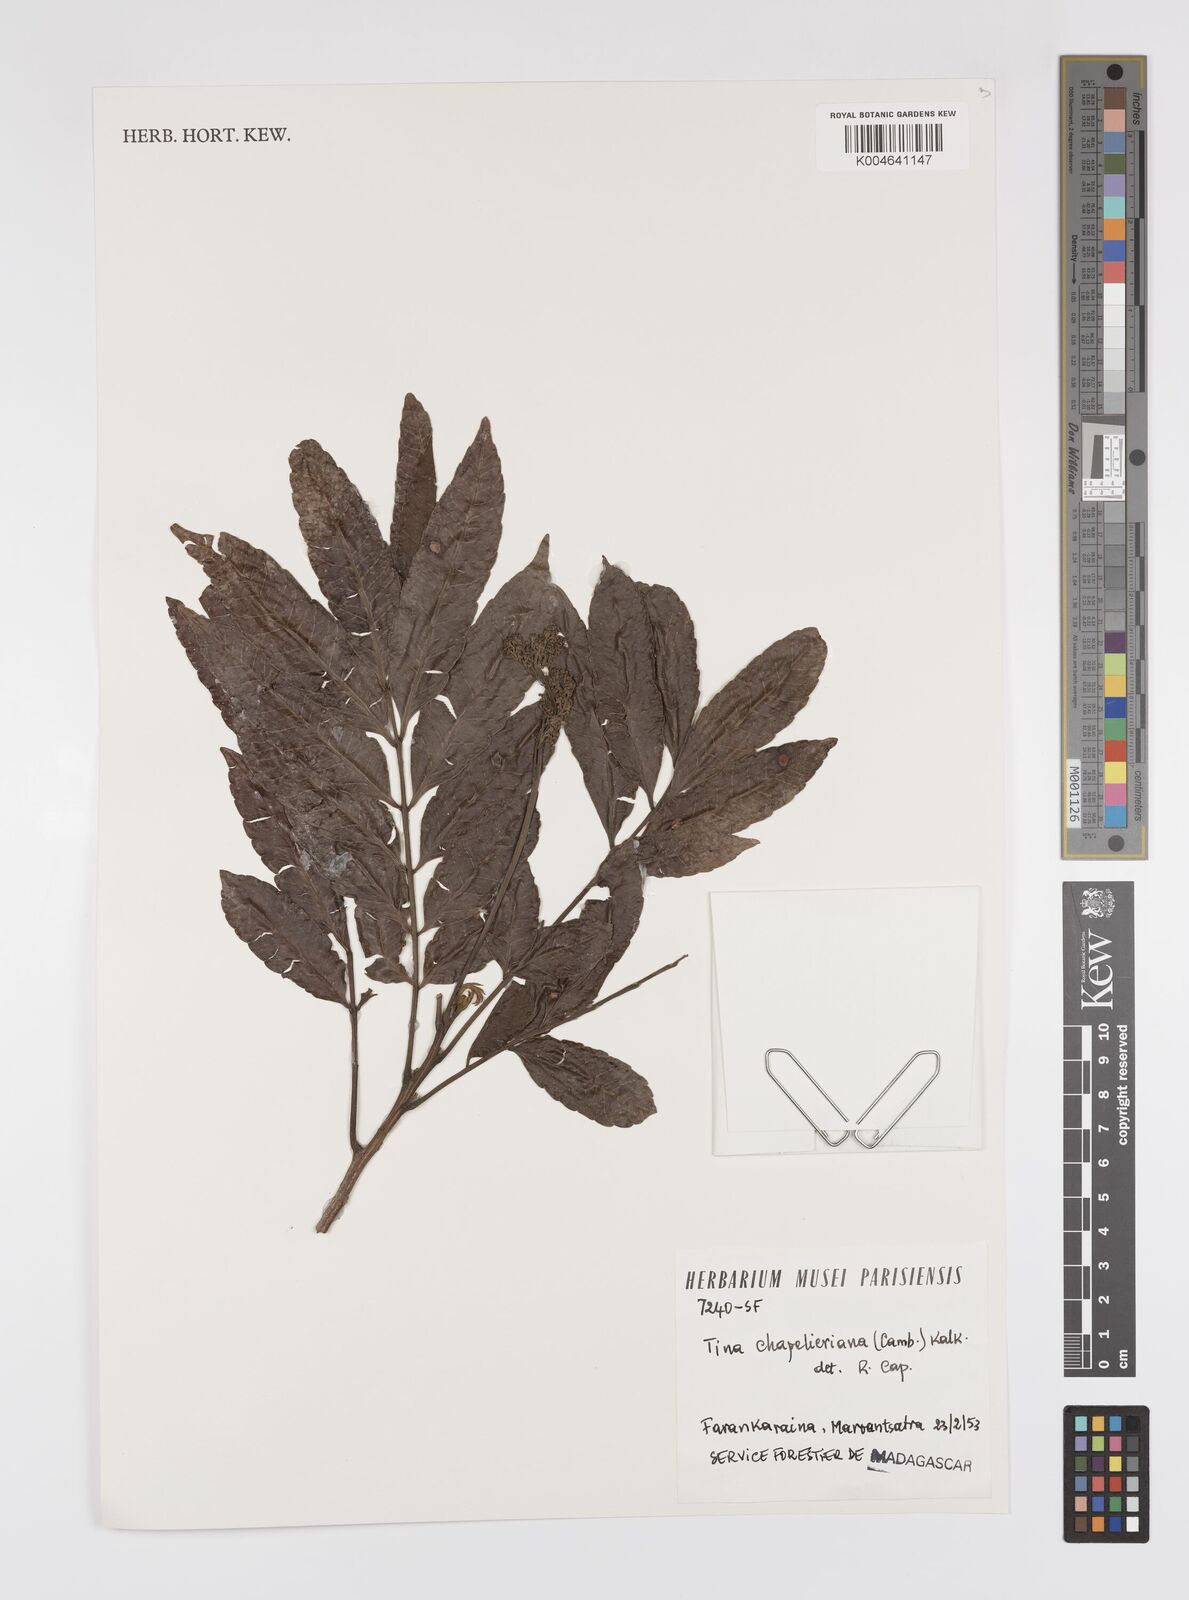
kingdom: Plantae
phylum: Tracheophyta
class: Magnoliopsida
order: Sapindales
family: Sapindaceae
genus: Tina
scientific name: Tina chapelieriana
